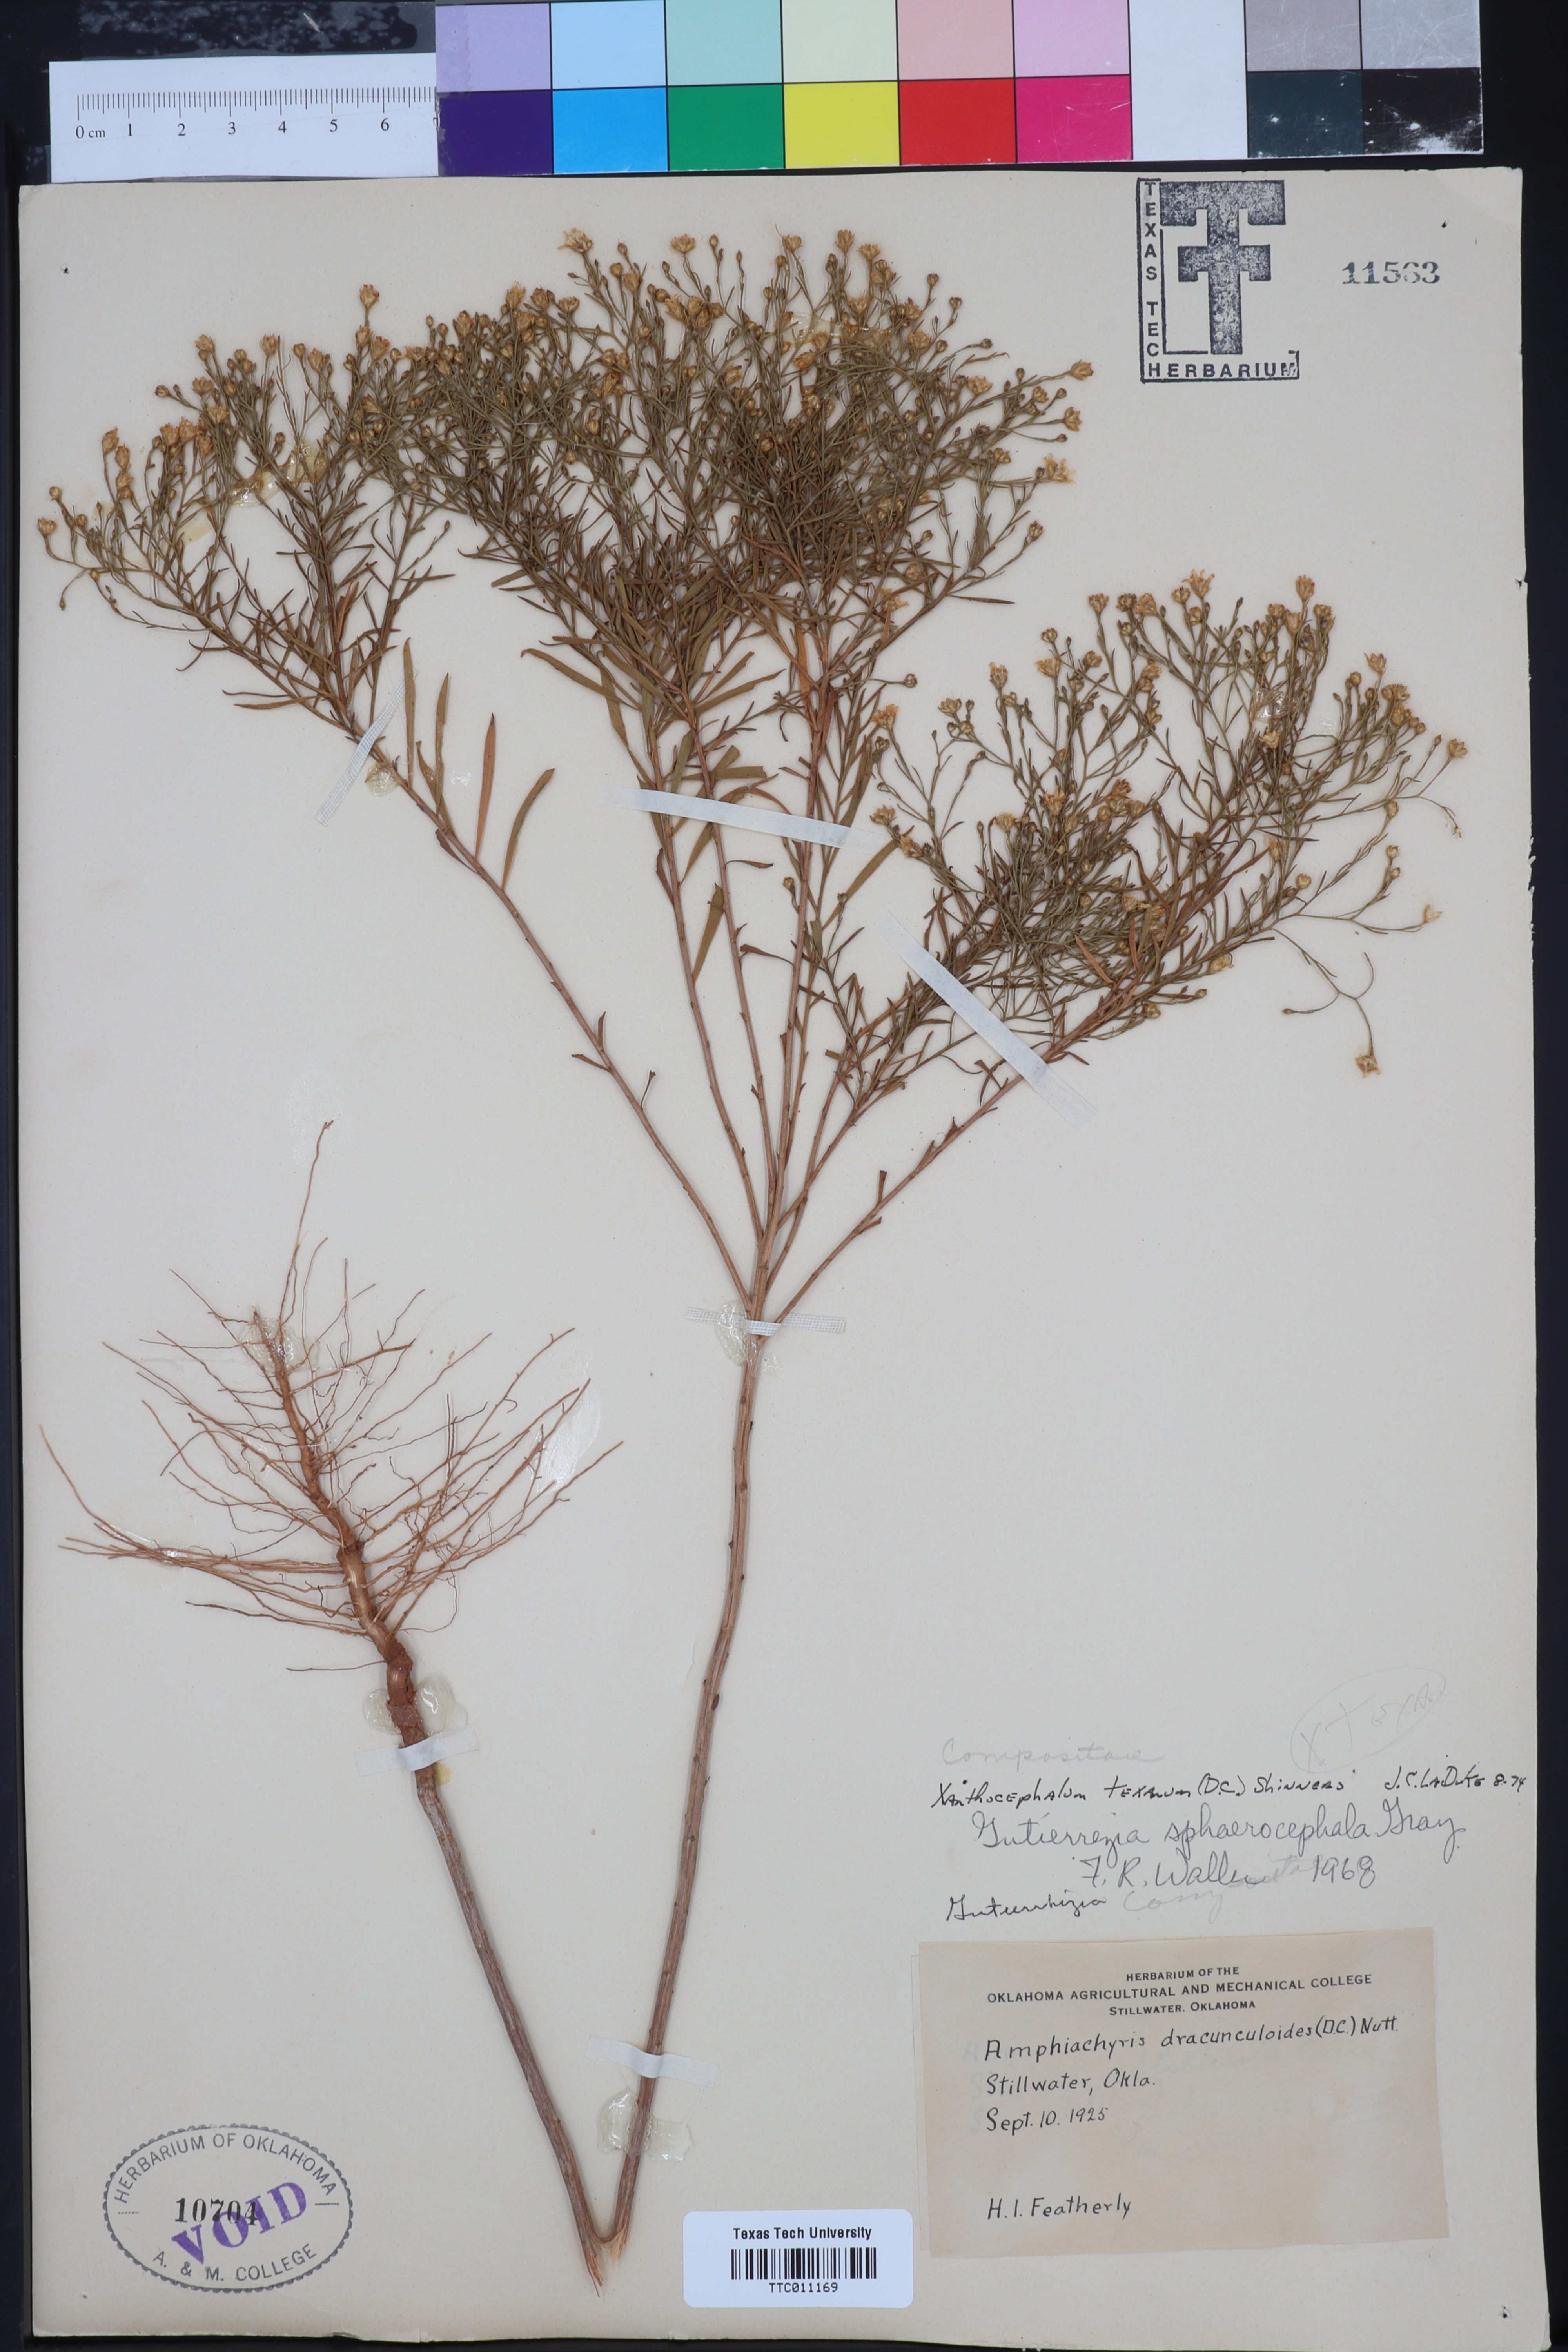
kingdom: Plantae
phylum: Tracheophyta
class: Magnoliopsida
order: Asterales
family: Asteraceae
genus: Gutierrezia
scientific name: Gutierrezia texana
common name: Texas snakeweed
